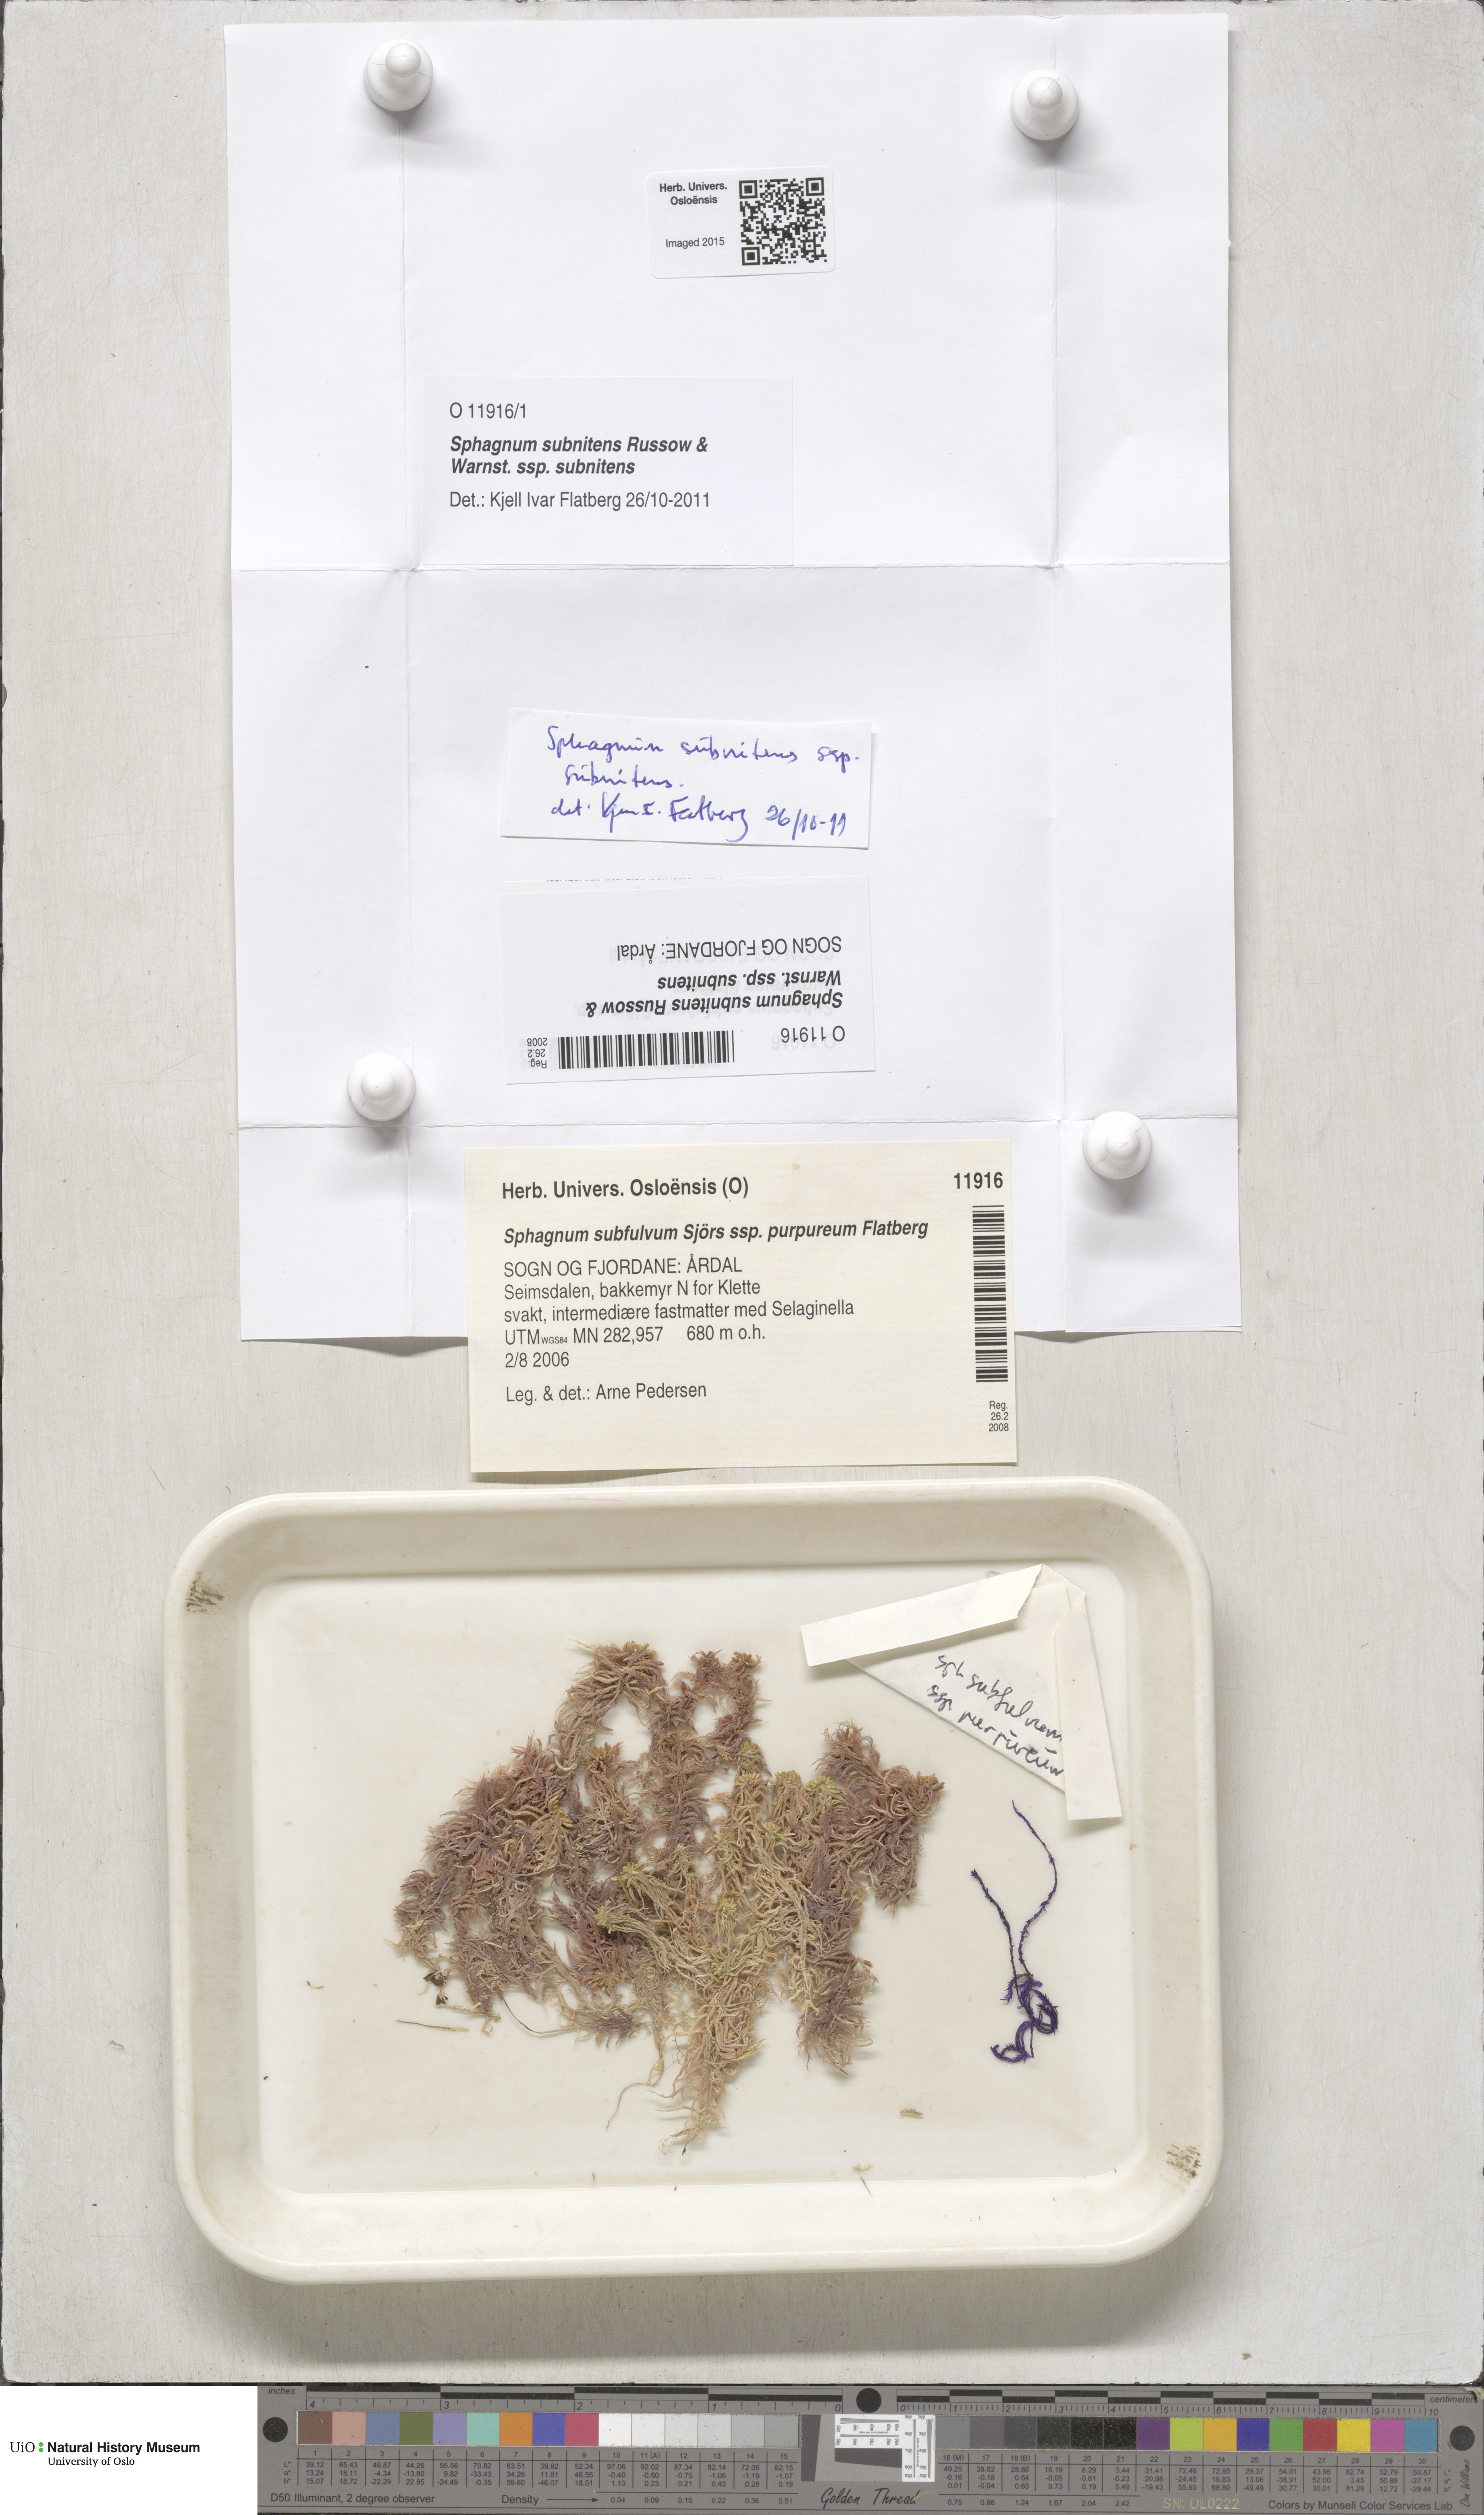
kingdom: Plantae
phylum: Bryophyta
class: Sphagnopsida
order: Sphagnales
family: Sphagnaceae
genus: Sphagnum
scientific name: Sphagnum subnitens
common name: Lustrous bog-moss
